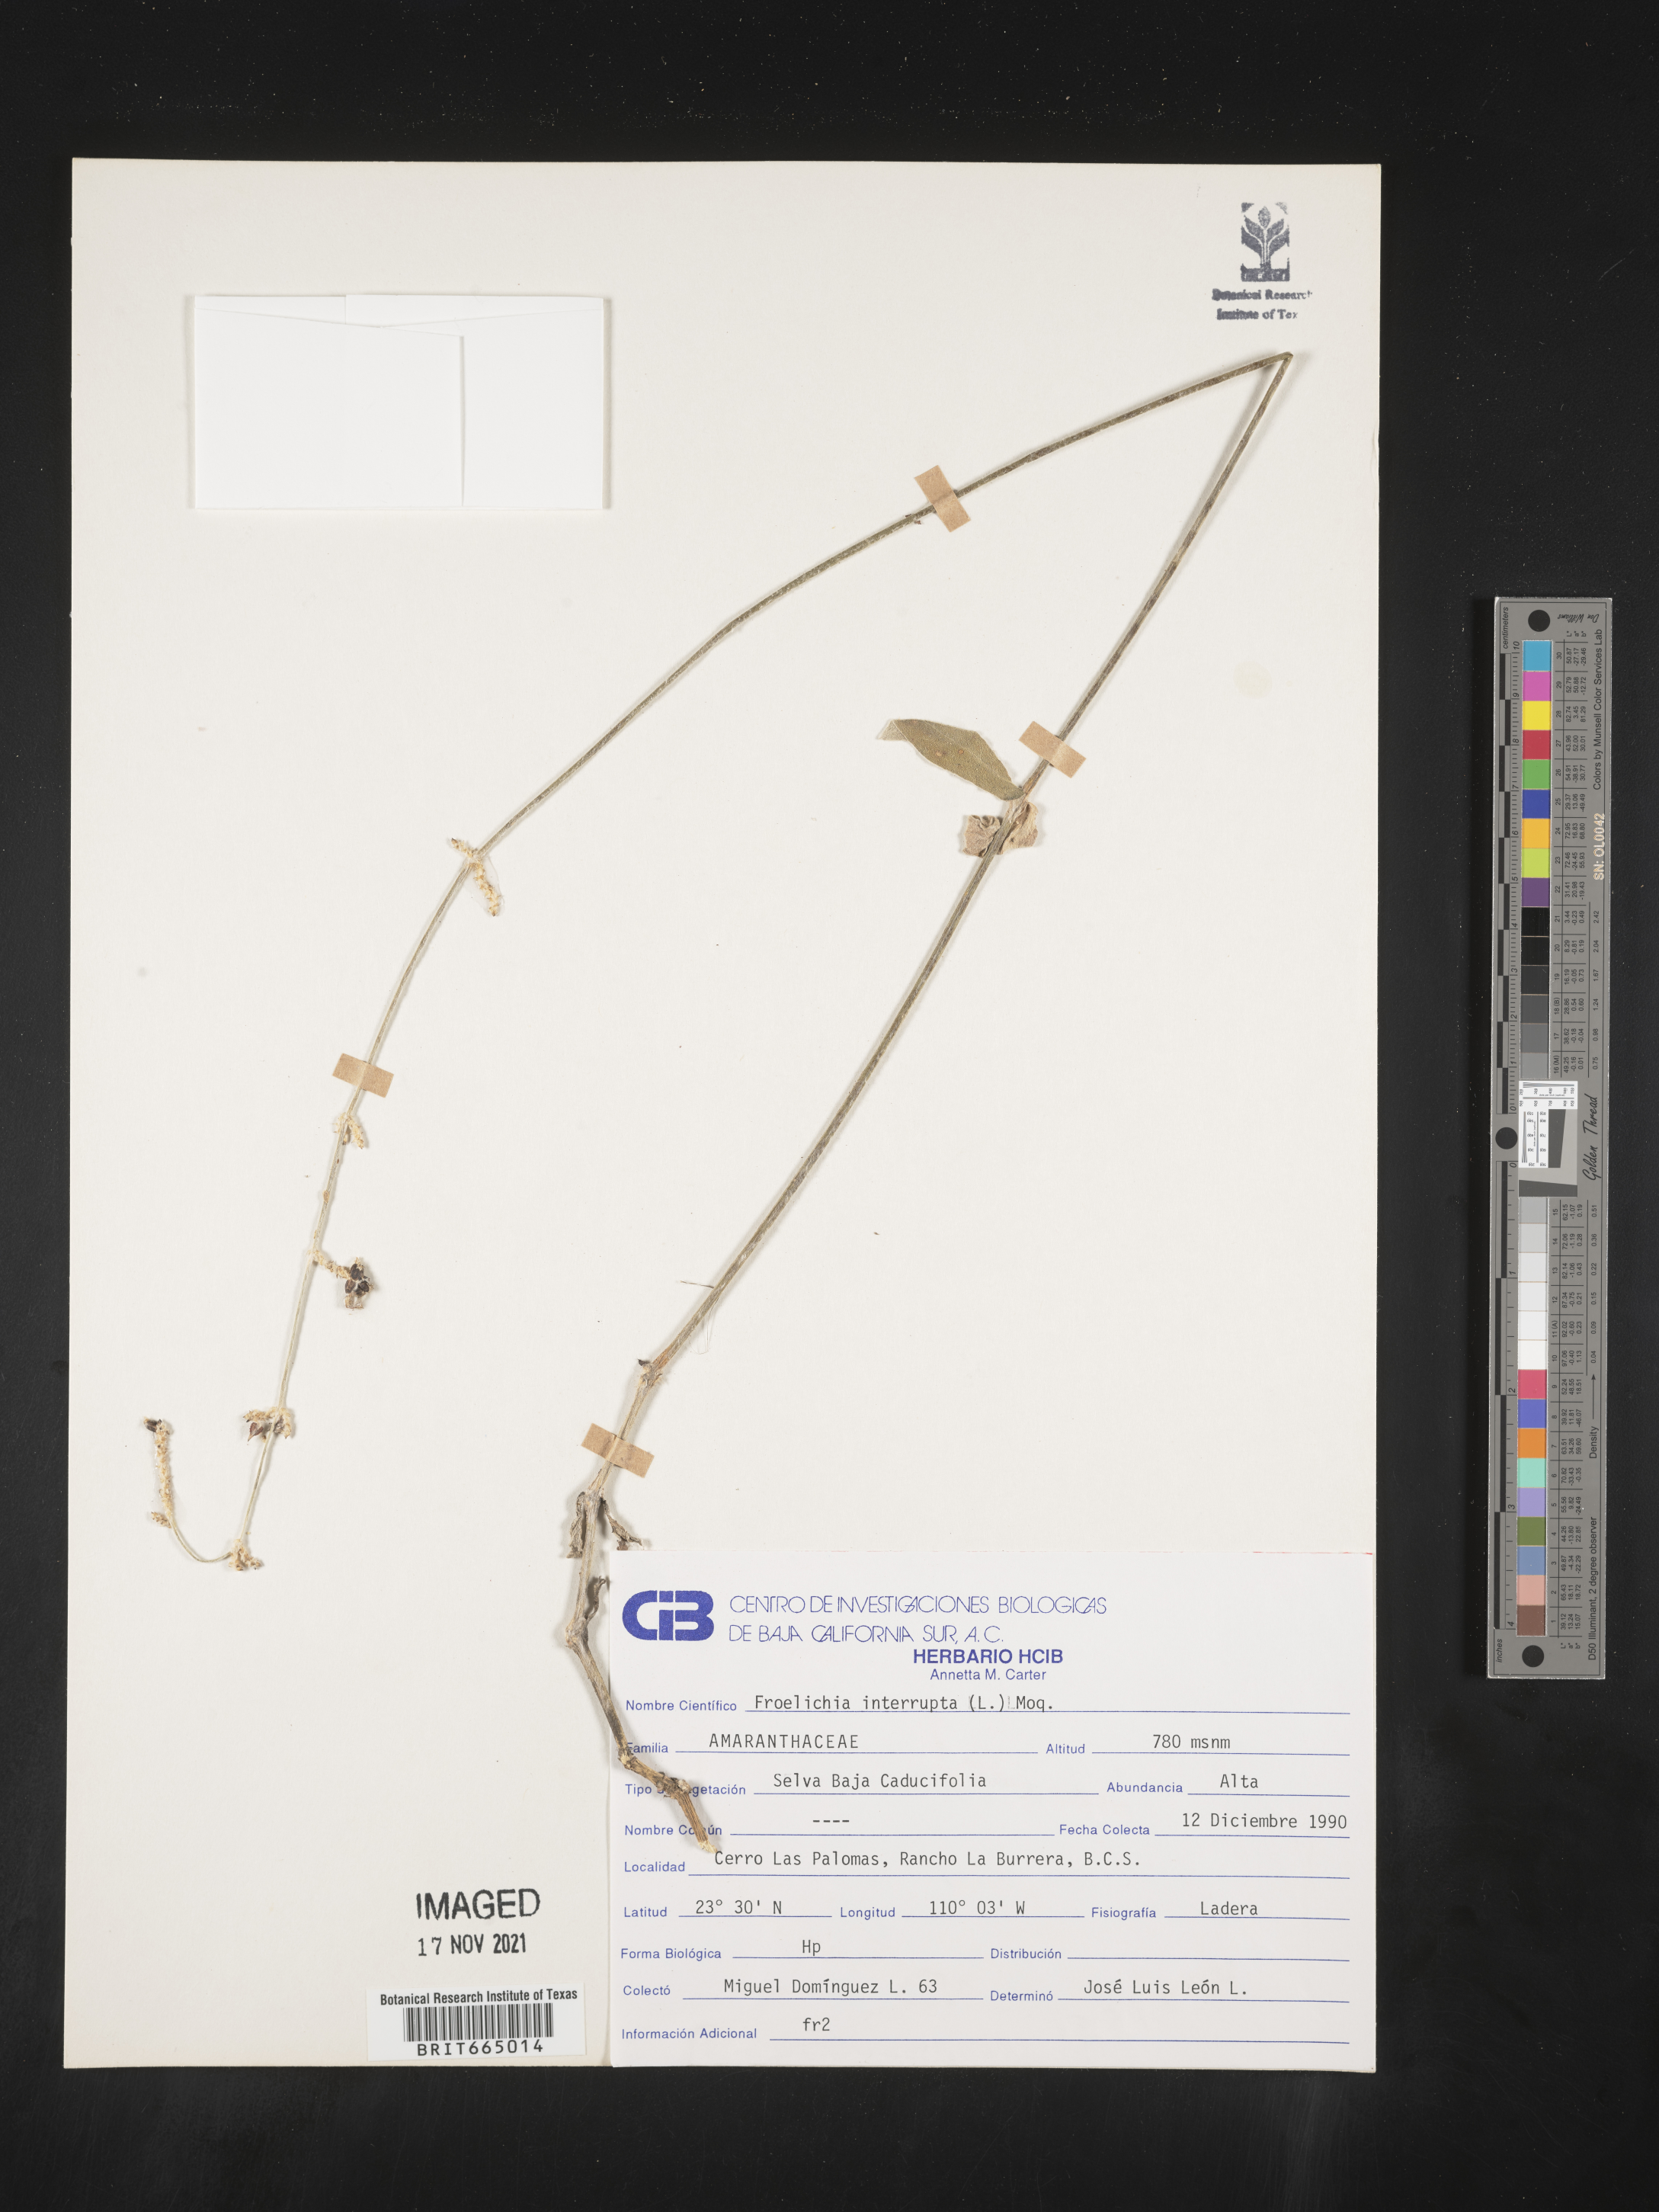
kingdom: Plantae
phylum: Tracheophyta
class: Magnoliopsida
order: Caryophyllales
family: Amaranthaceae
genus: Froelichia
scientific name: Froelichia
